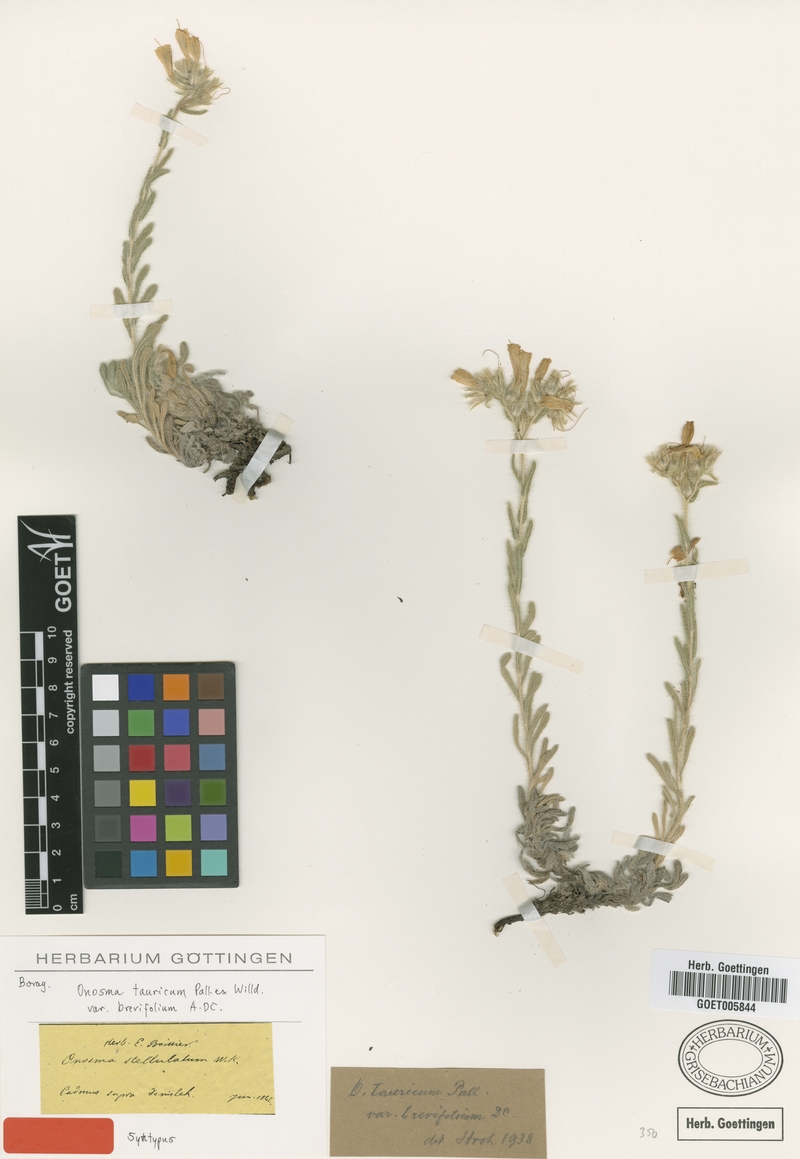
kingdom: Plantae
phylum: Tracheophyta
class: Magnoliopsida
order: Boraginales
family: Boraginaceae
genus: Onosma
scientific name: Onosma cinerea
